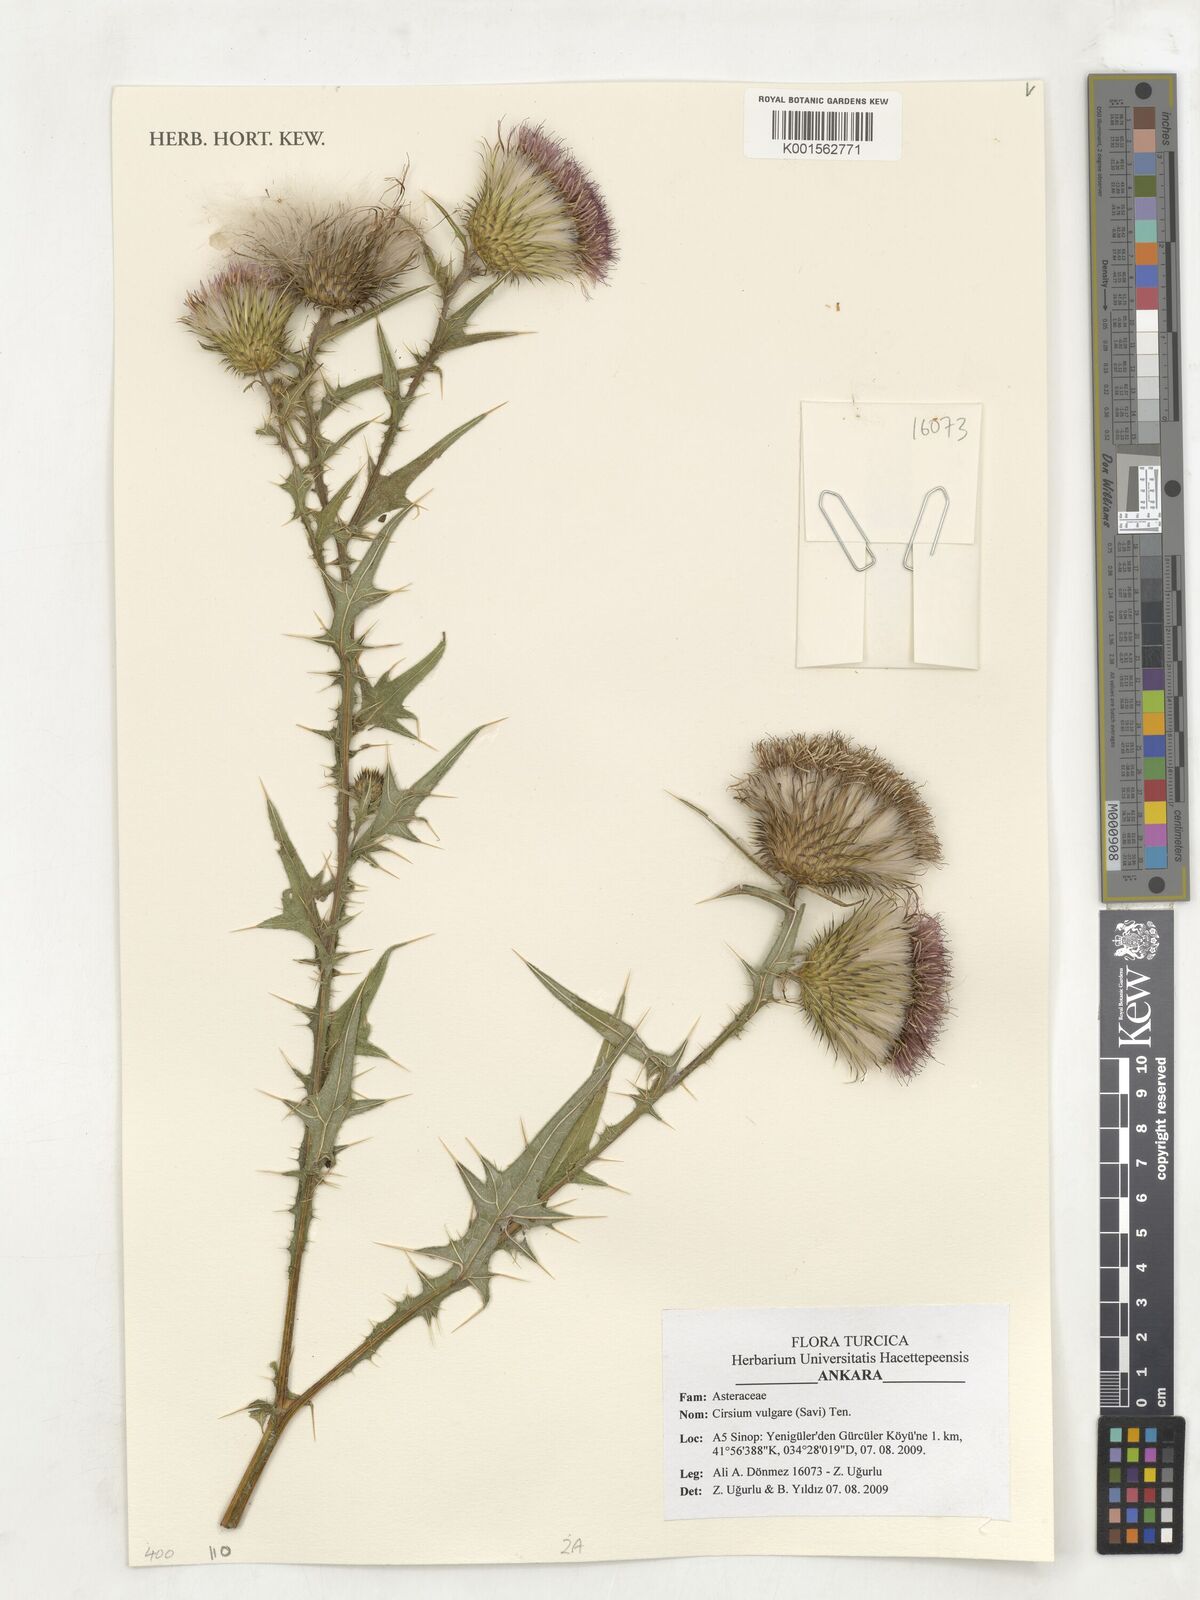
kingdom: Plantae
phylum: Tracheophyta
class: Magnoliopsida
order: Asterales
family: Asteraceae
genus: Cirsium
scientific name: Cirsium vulgare
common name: Bull thistle
